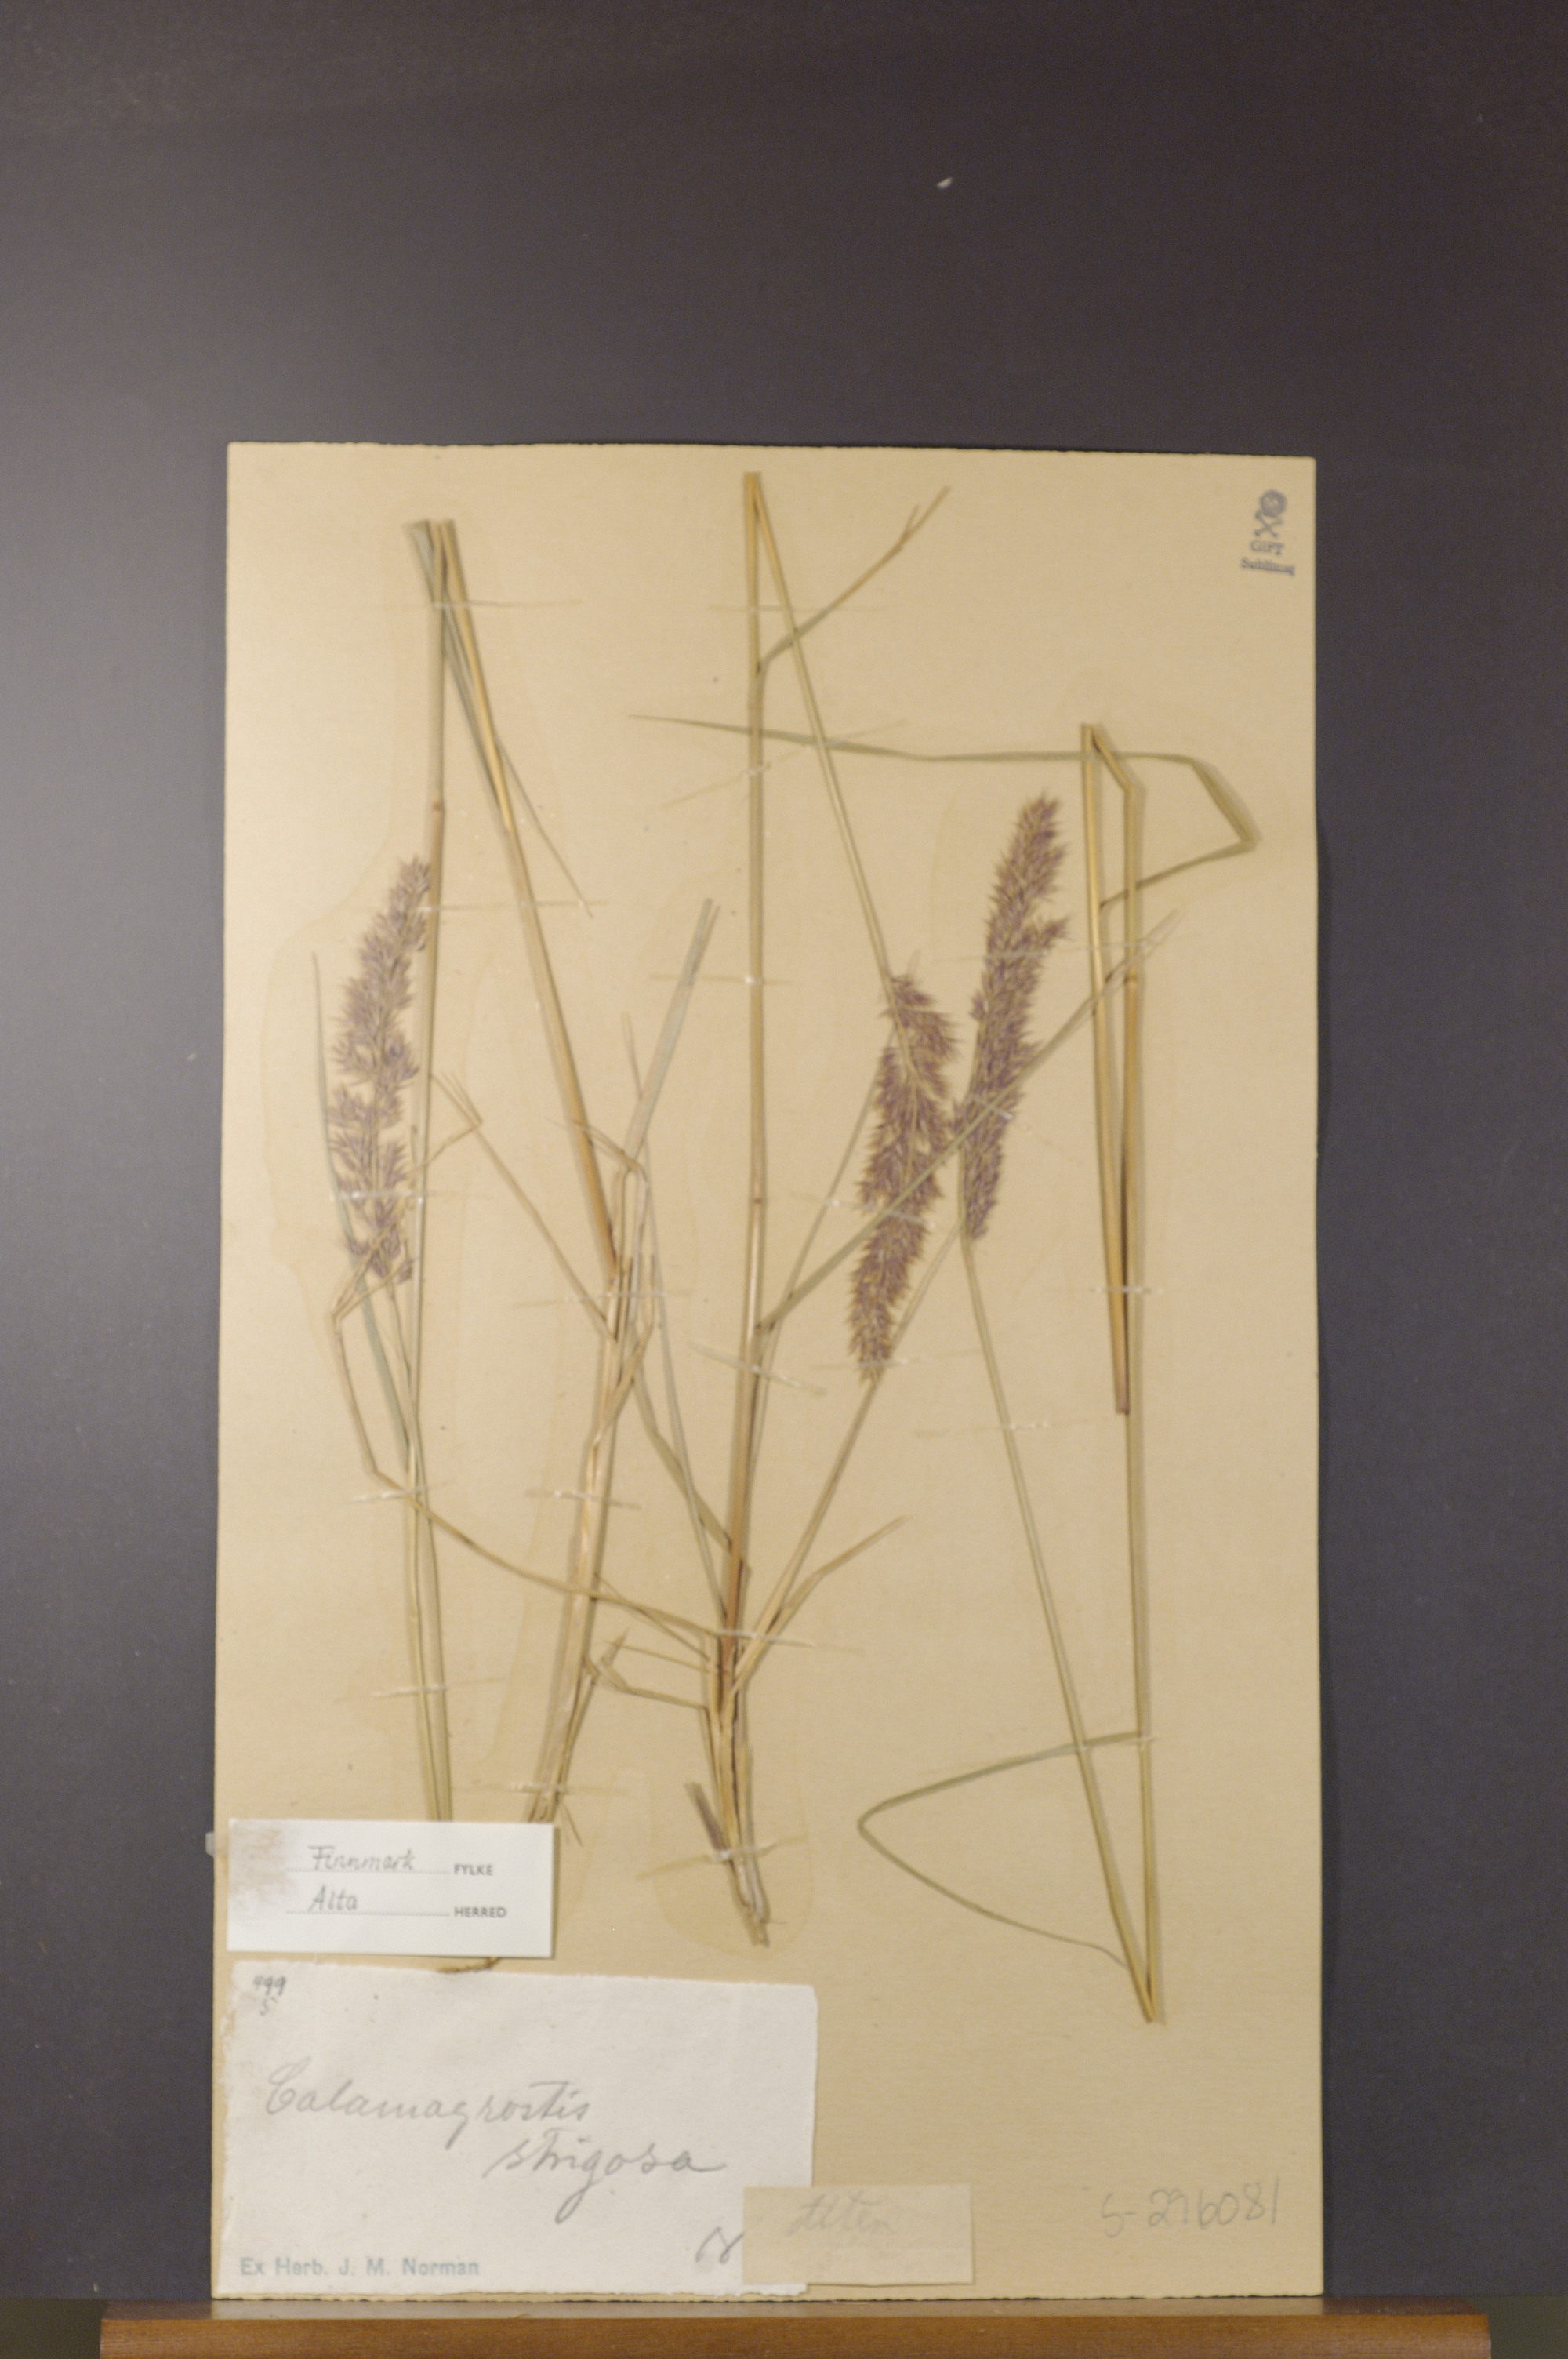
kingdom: Plantae
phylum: Tracheophyta
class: Liliopsida
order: Poales
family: Poaceae
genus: Calamagrostis
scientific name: Calamagrostis strigosa
